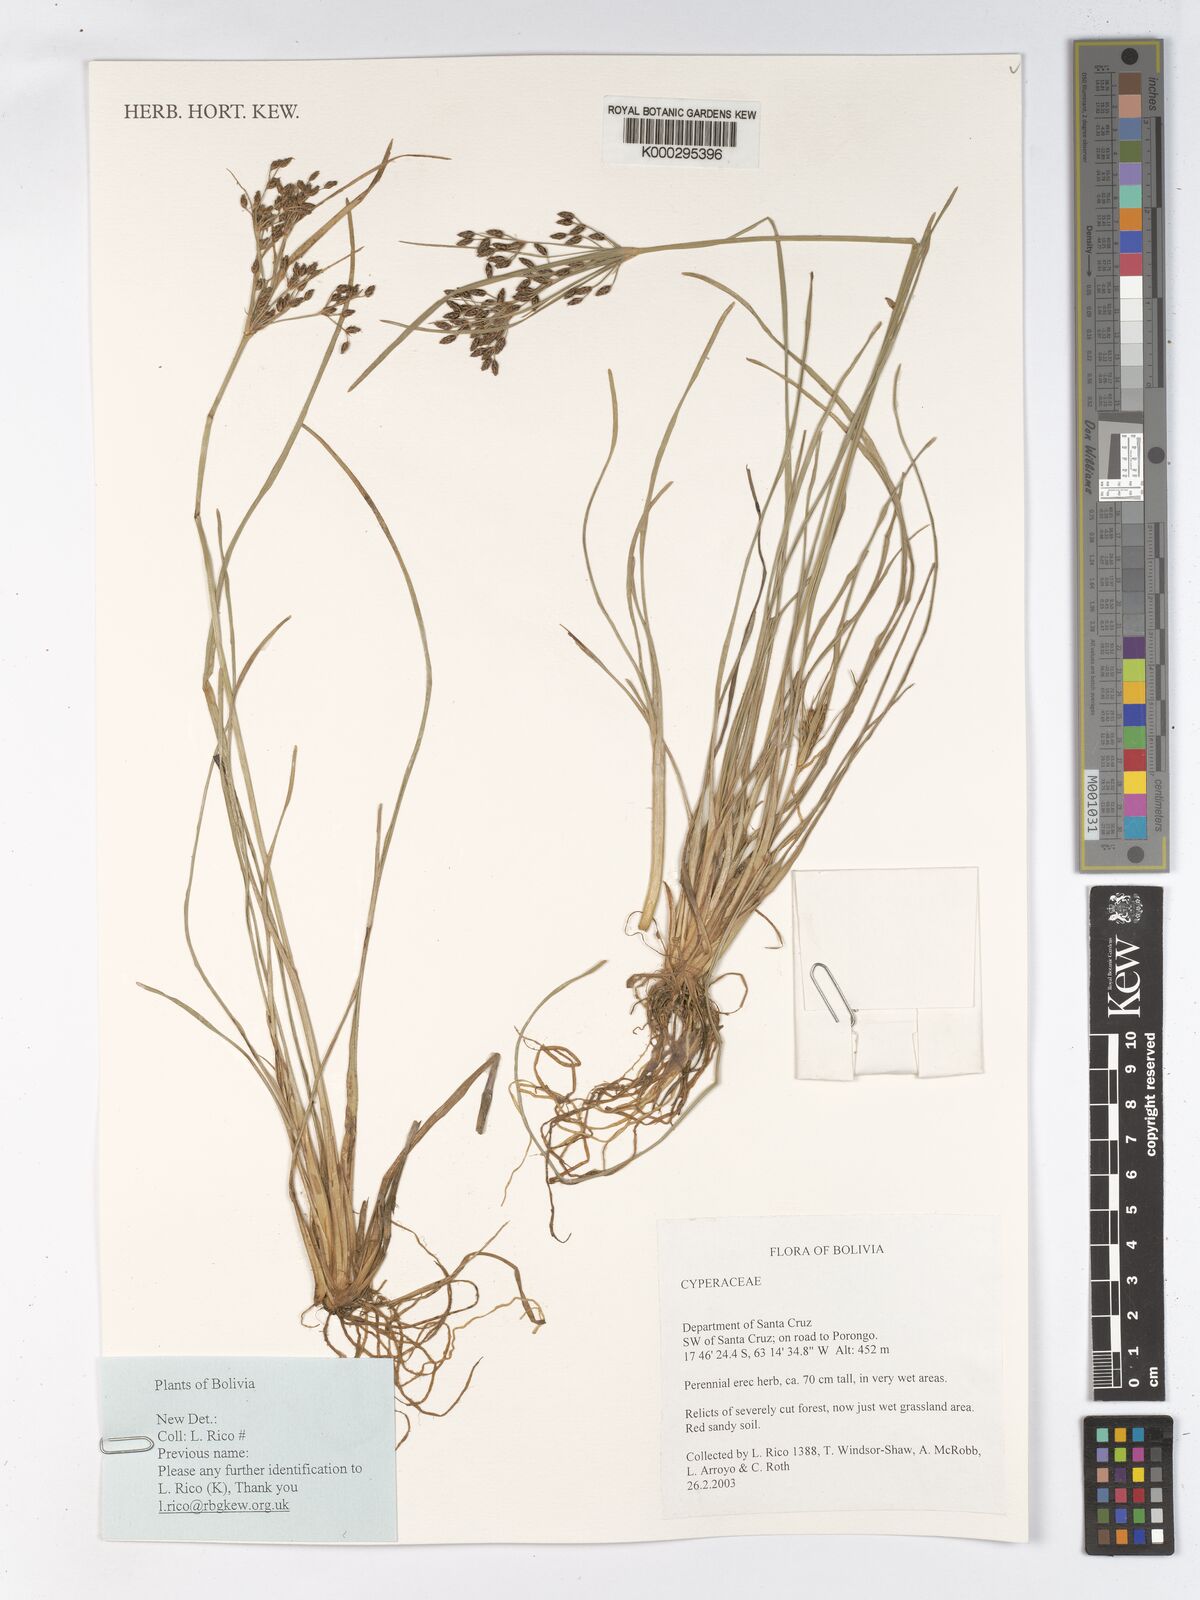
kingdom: Plantae
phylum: Tracheophyta
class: Liliopsida
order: Poales
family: Cyperaceae
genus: Fimbristylis
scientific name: Fimbristylis dichotoma
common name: Forked fimbry
